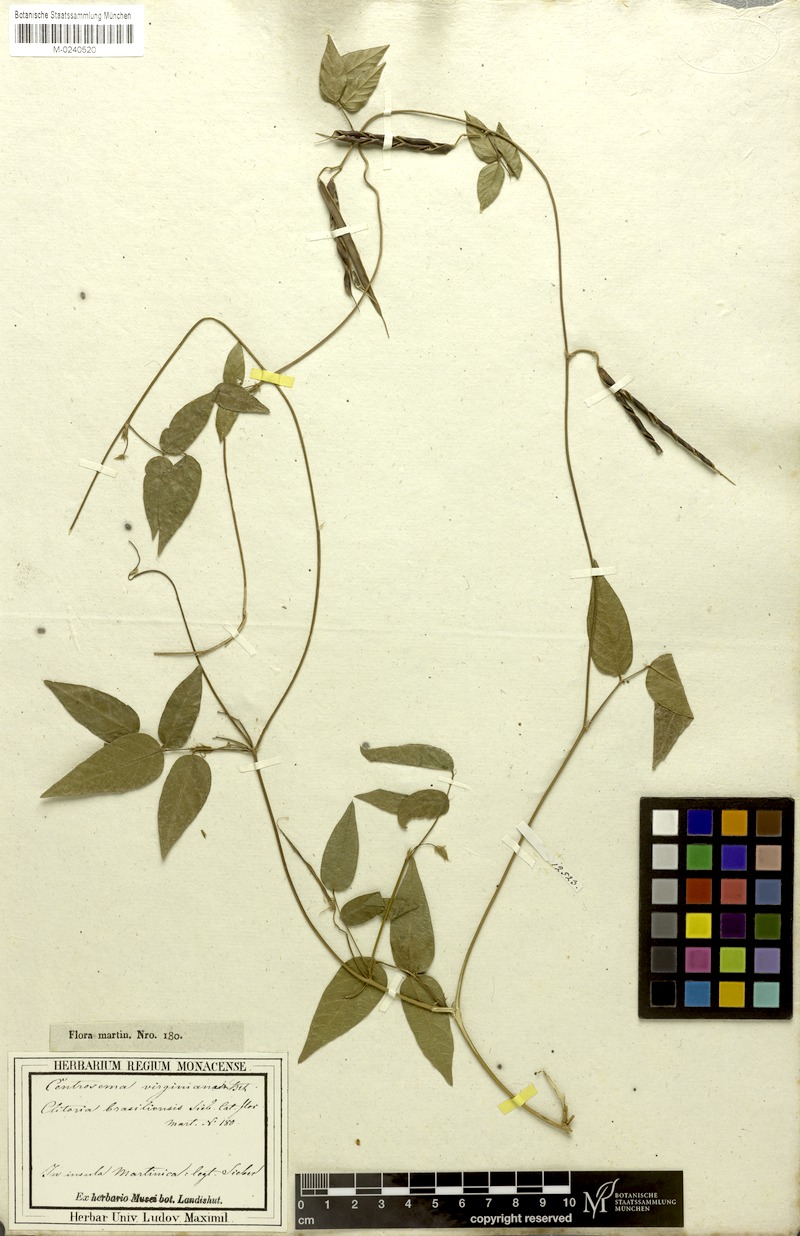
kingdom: Plantae
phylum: Tracheophyta
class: Magnoliopsida
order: Fabales
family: Fabaceae
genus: Centrosema
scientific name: Centrosema virginianum
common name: Butterfly-pea
